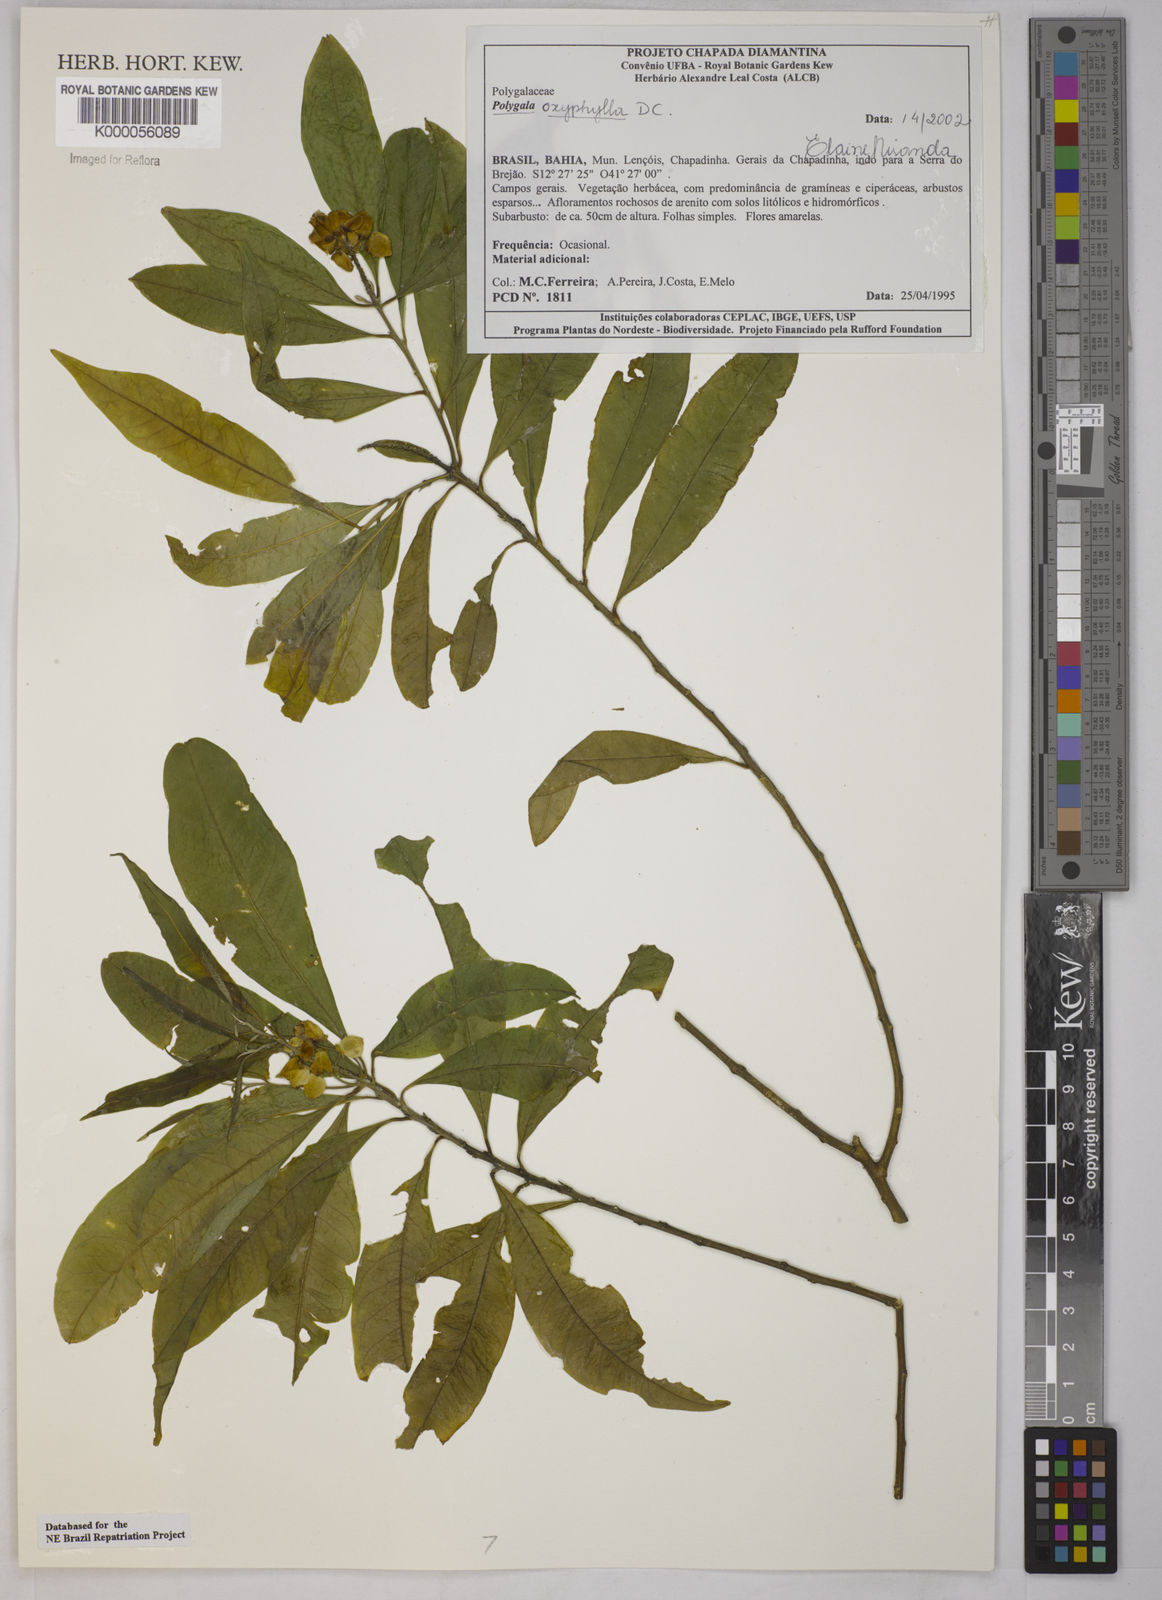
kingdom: Plantae
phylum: Tracheophyta
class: Magnoliopsida
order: Fabales
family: Polygalaceae
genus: Caamembeca
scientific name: Caamembeca oxyphylla
